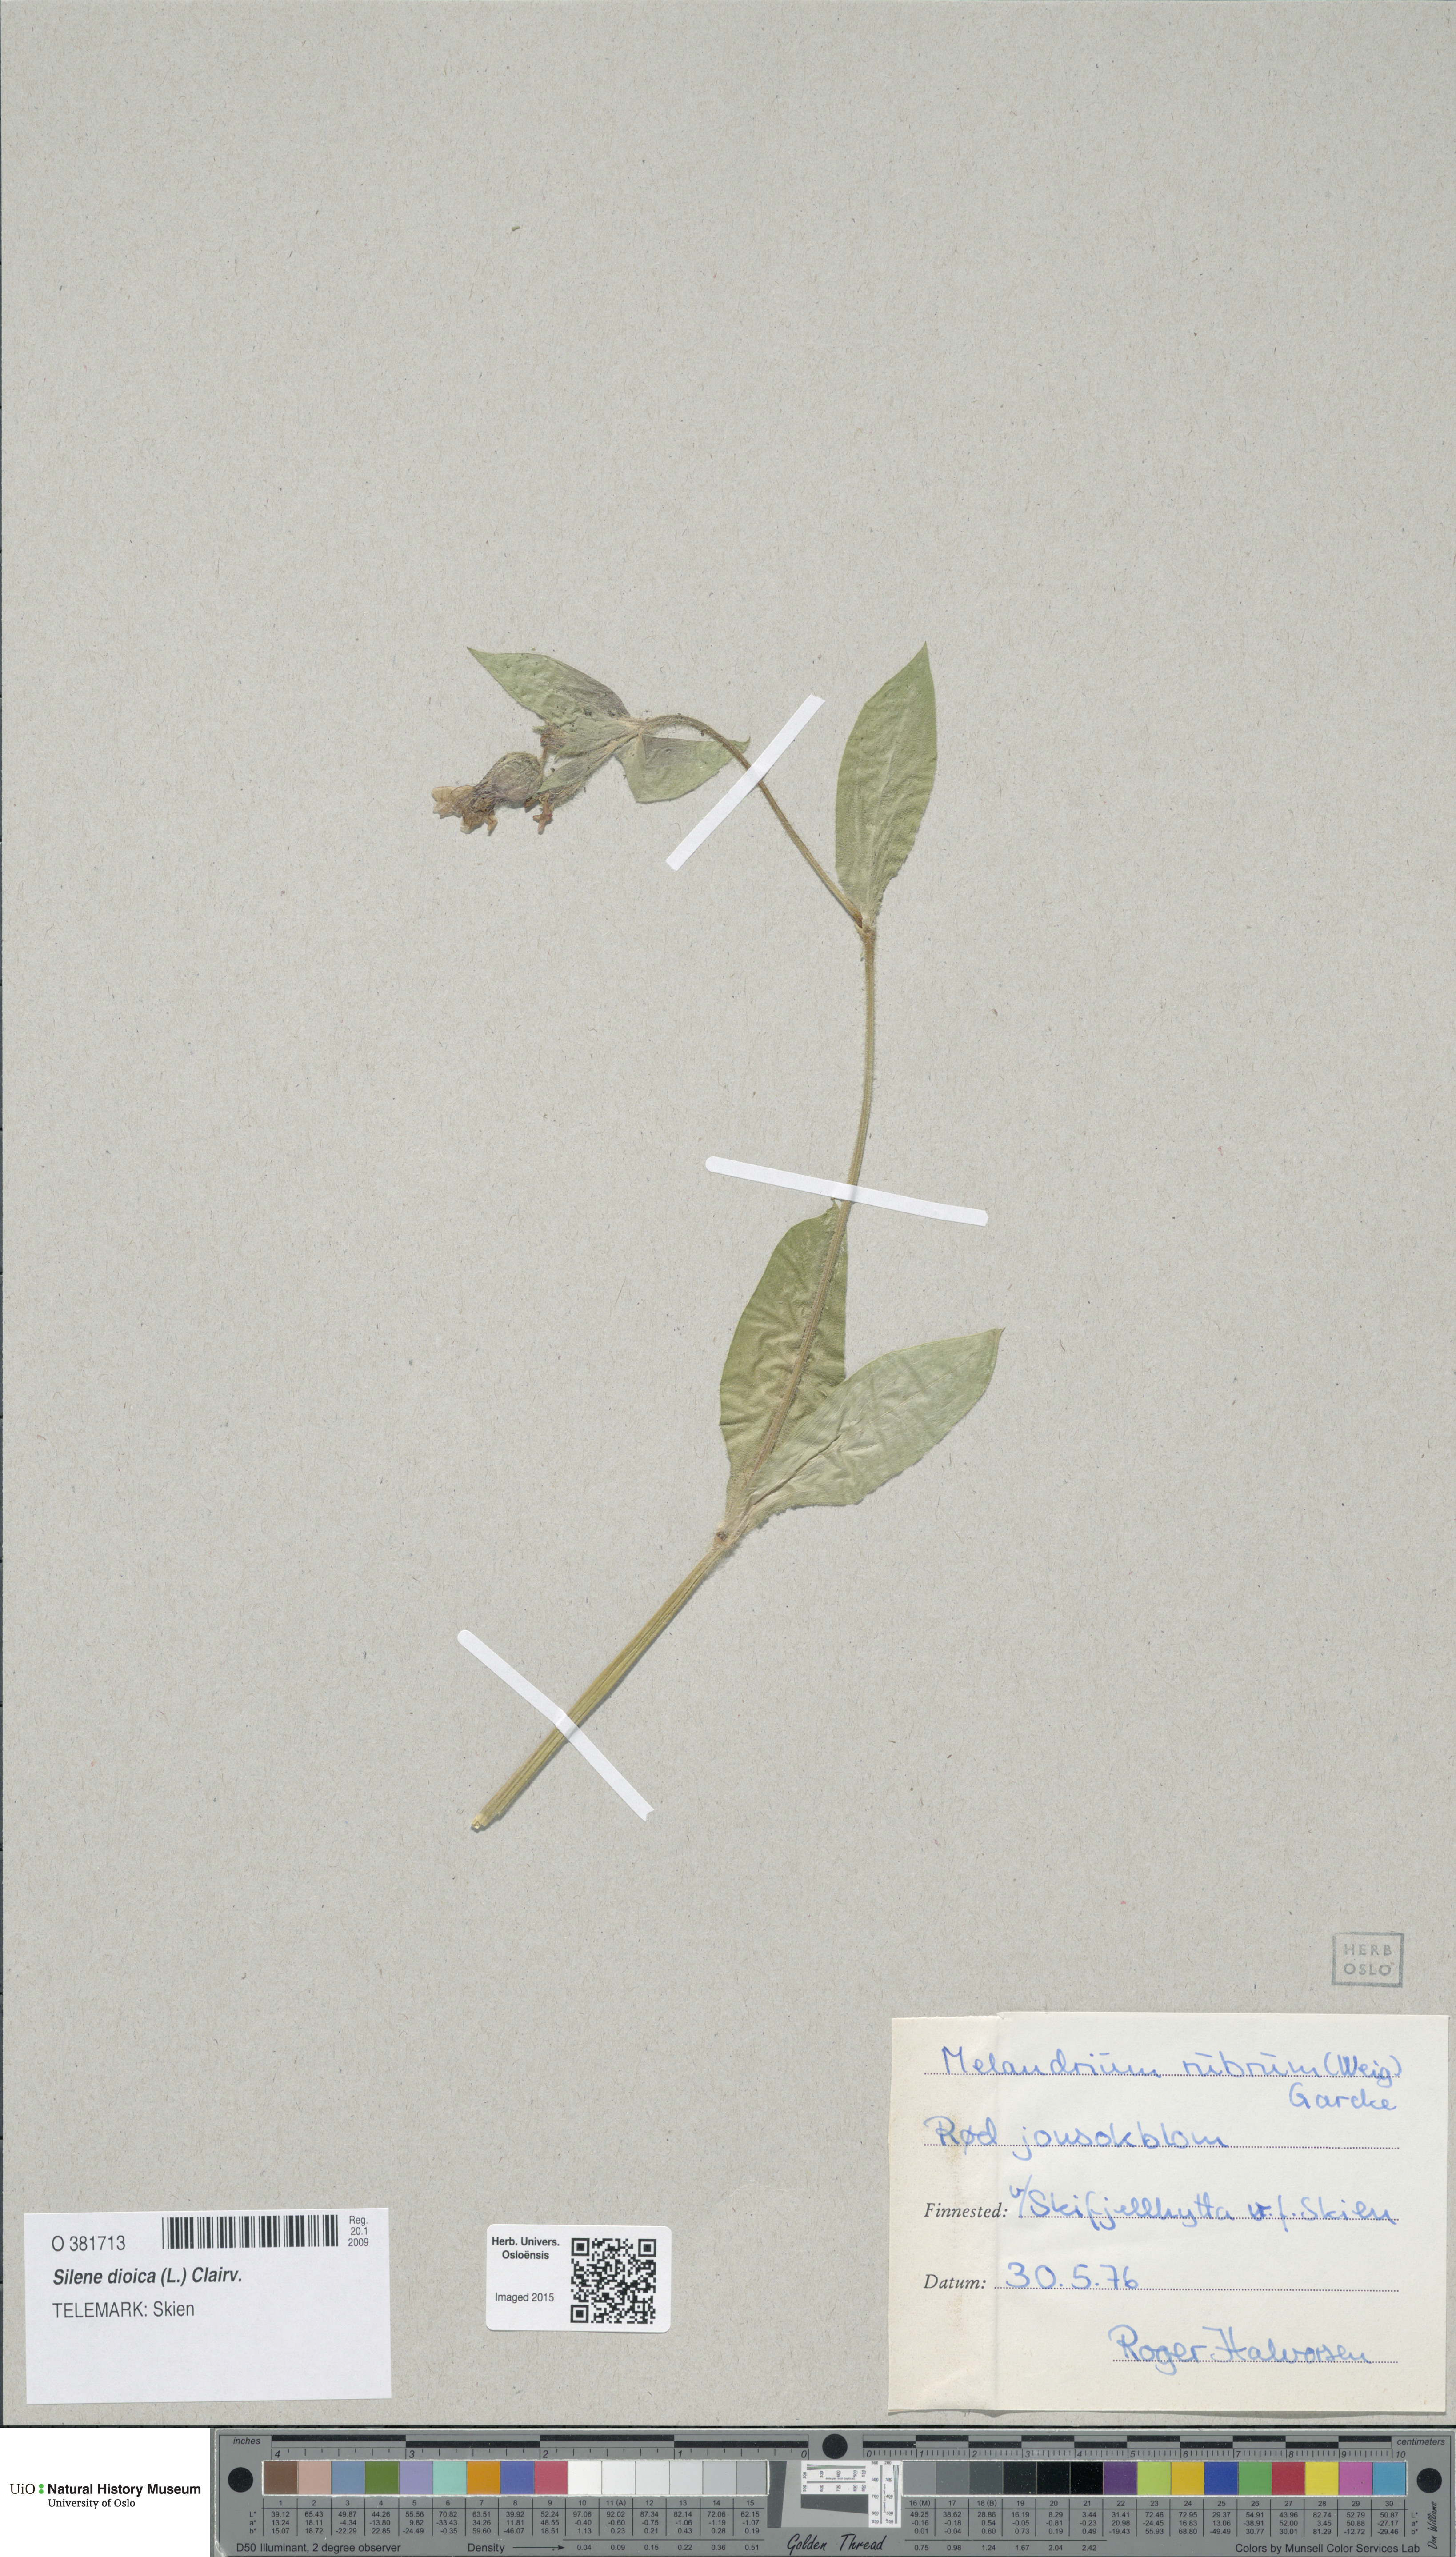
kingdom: Plantae
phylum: Tracheophyta
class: Magnoliopsida
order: Caryophyllales
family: Caryophyllaceae
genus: Silene
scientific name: Silene dioica
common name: Red campion
